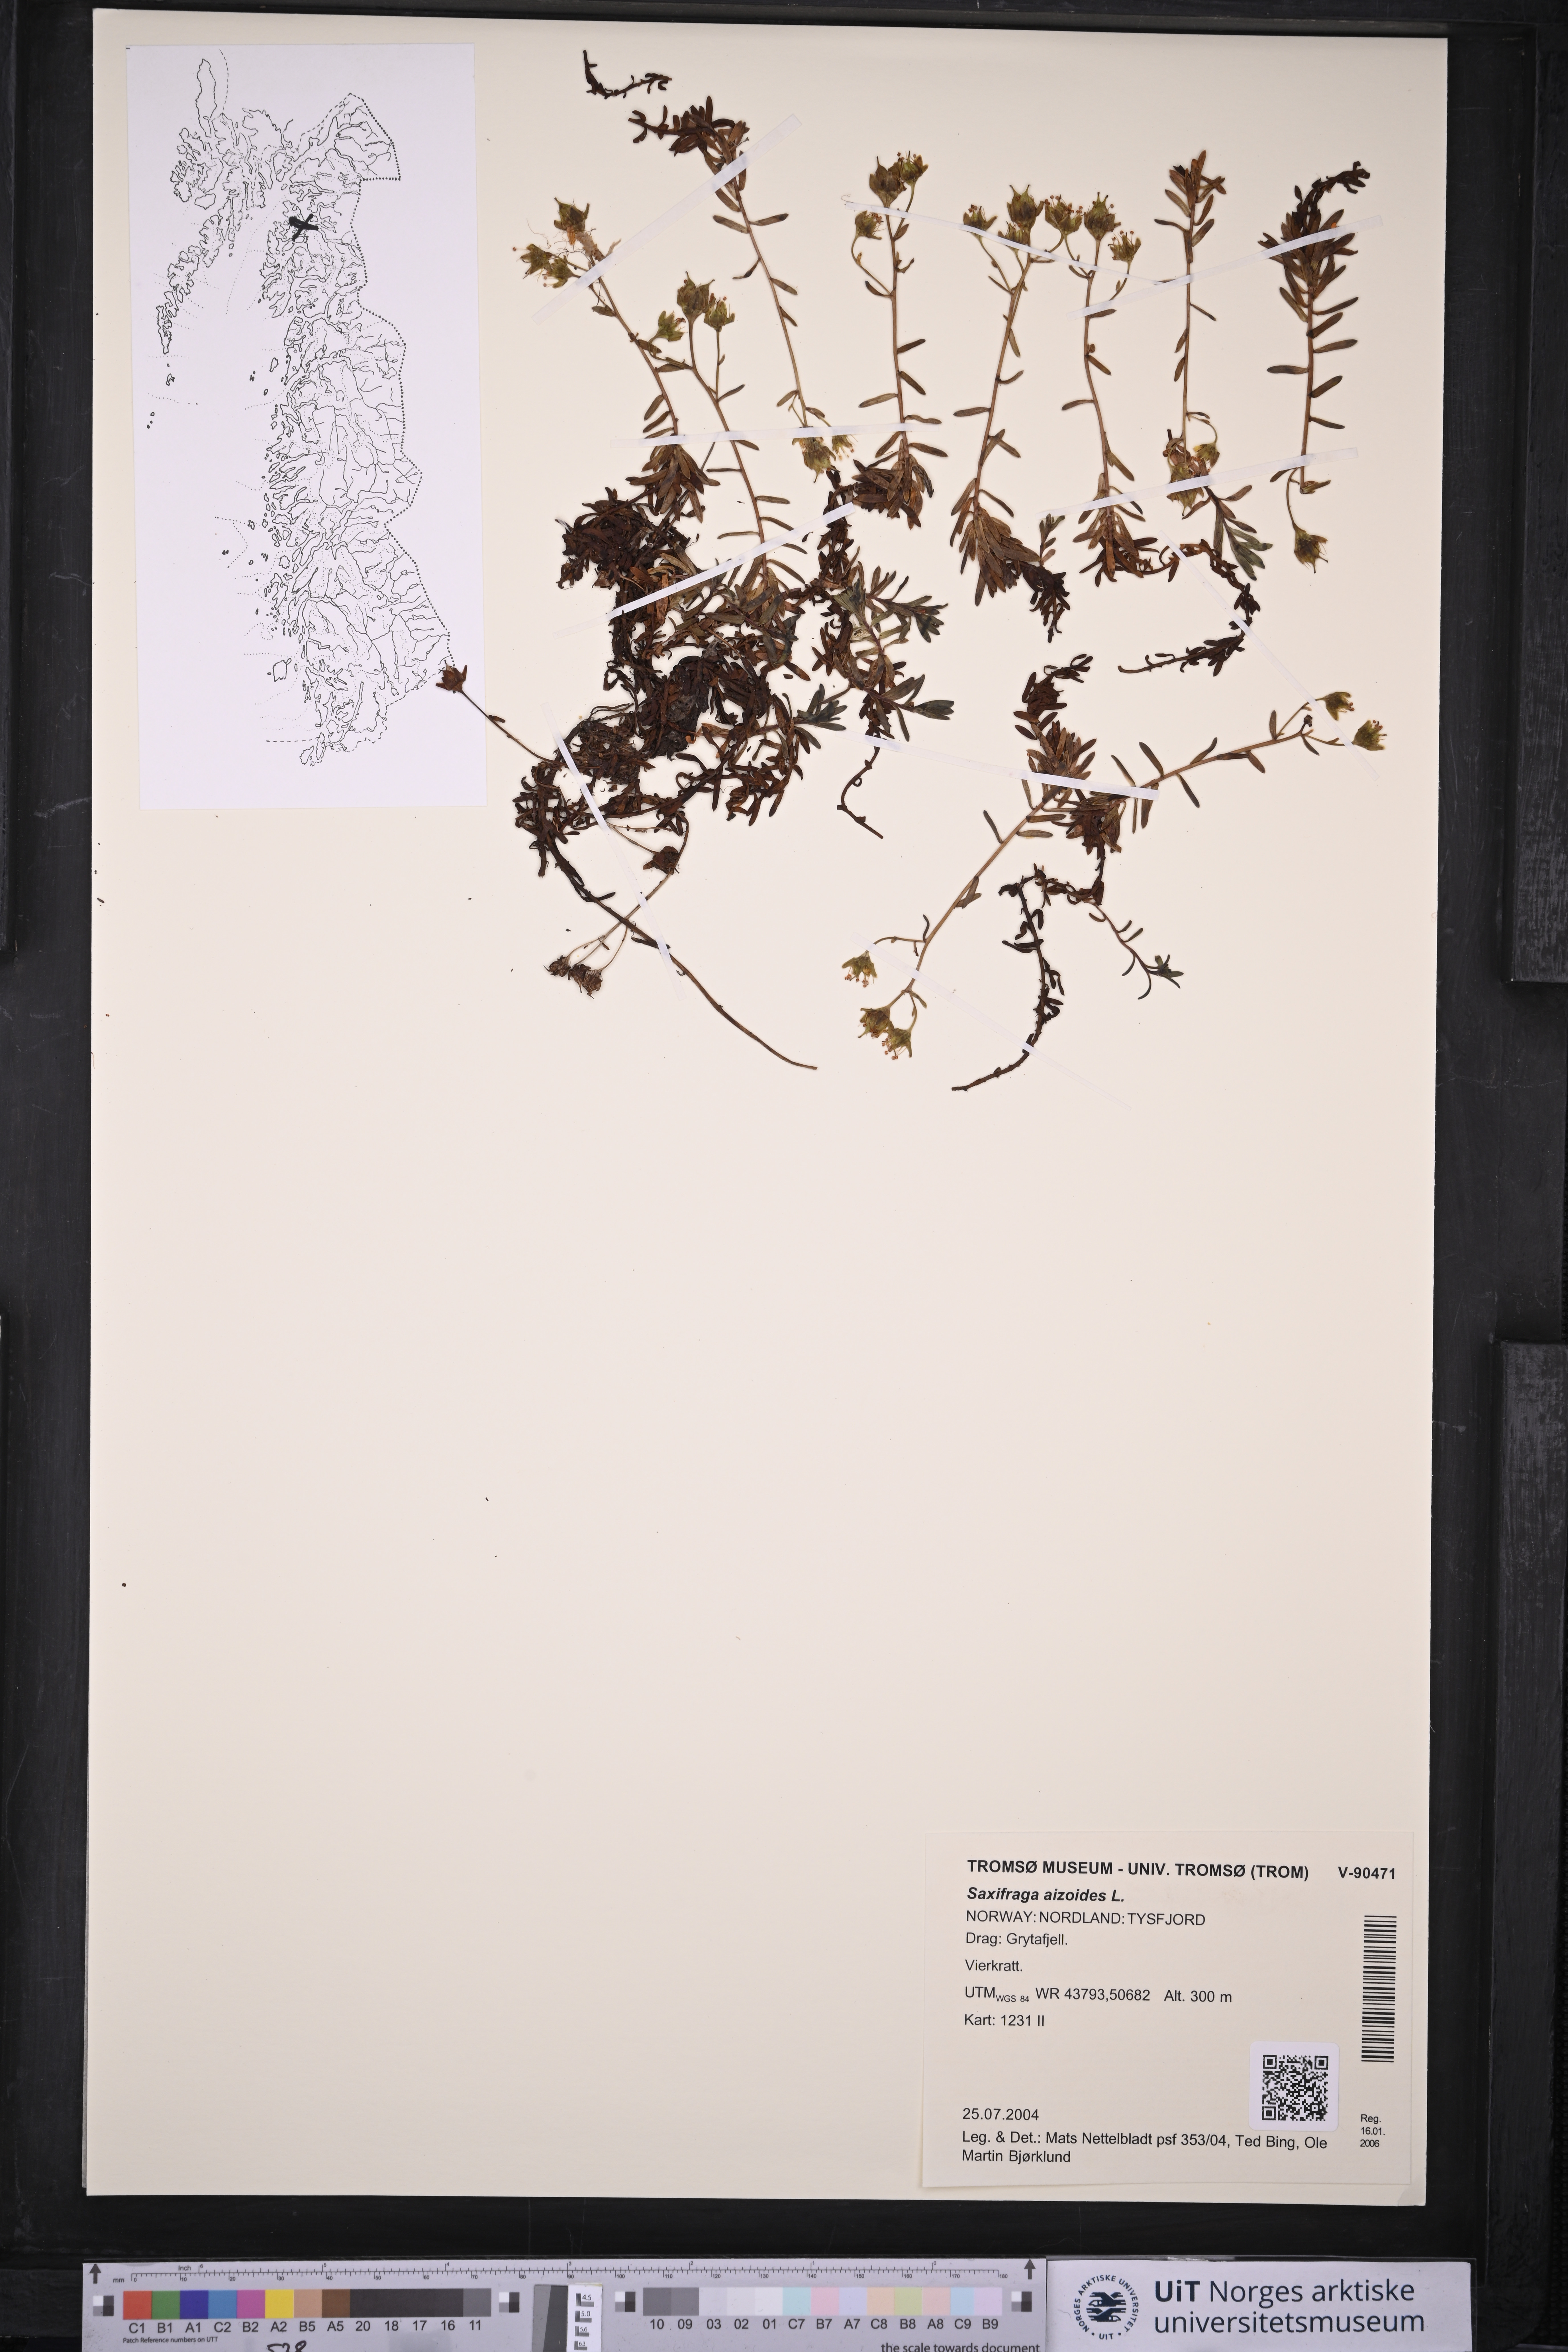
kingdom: Plantae
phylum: Tracheophyta
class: Magnoliopsida
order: Saxifragales
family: Saxifragaceae
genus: Saxifraga
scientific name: Saxifraga aizoides
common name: Yellow mountain saxifrage
